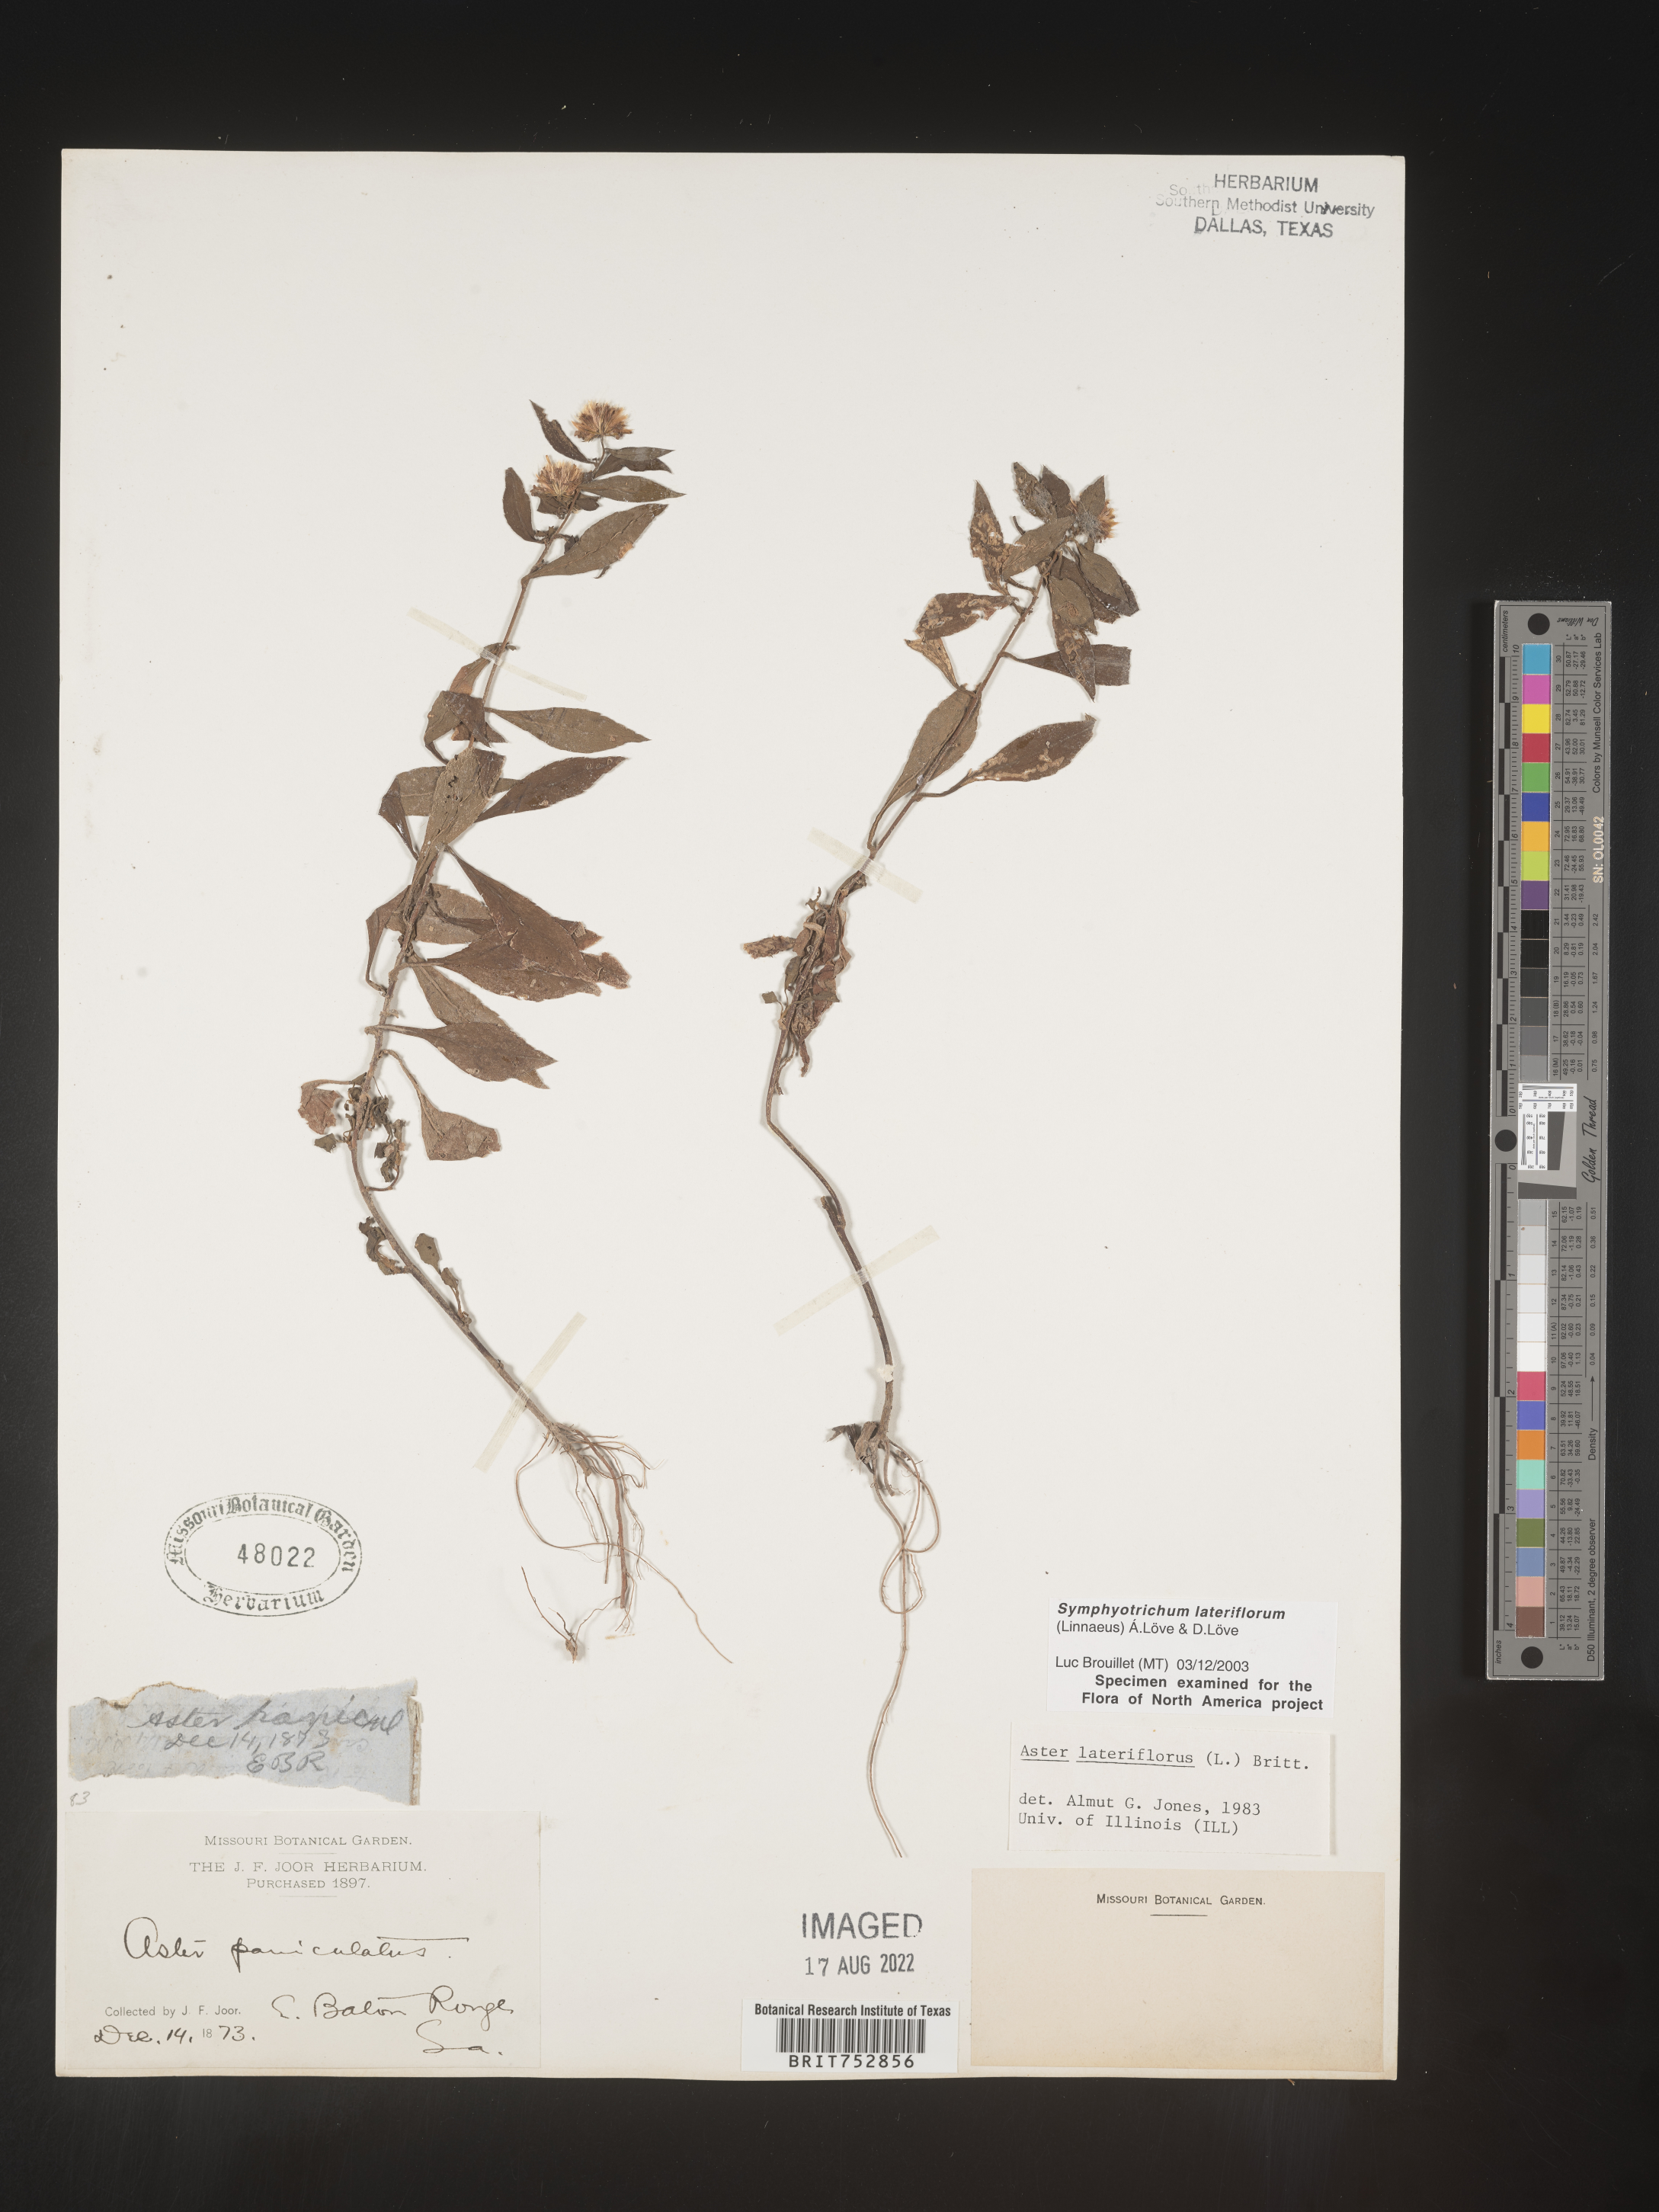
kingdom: Plantae
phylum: Tracheophyta
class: Magnoliopsida
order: Asterales
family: Asteraceae
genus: Symphyotrichum
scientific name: Symphyotrichum lateriflorum
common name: Calico aster
